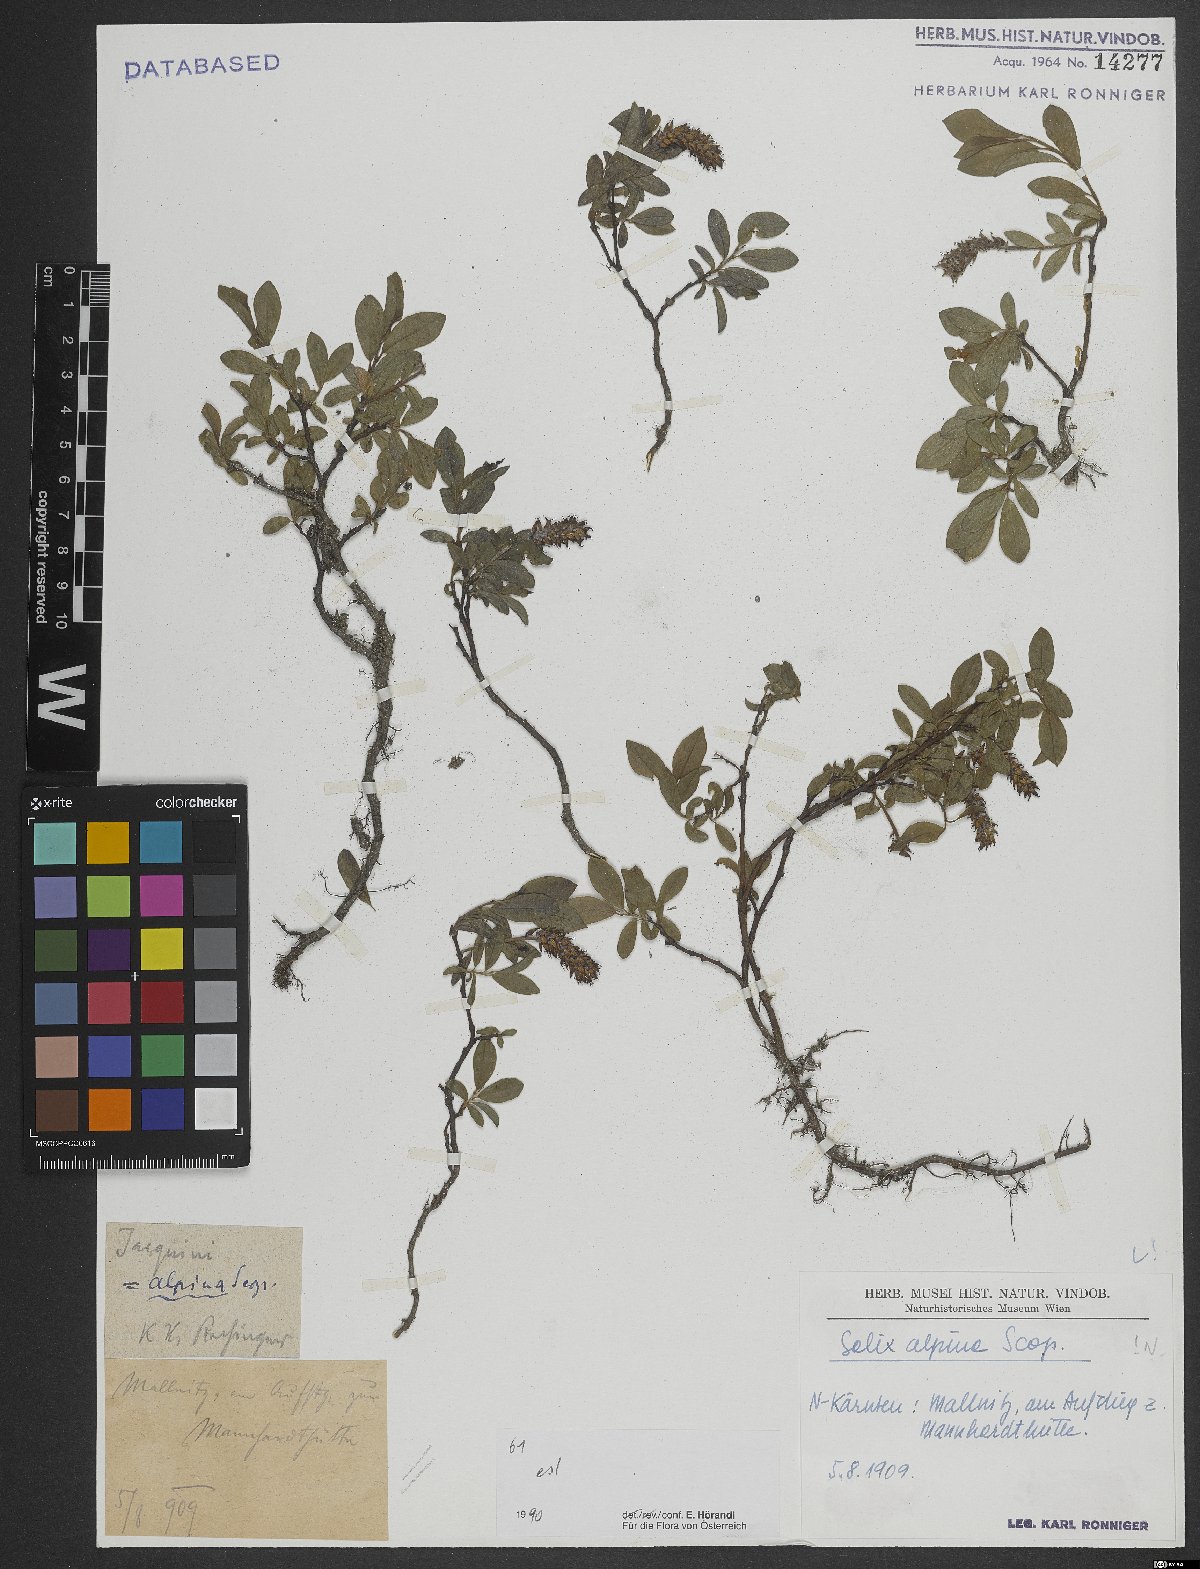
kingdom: Plantae
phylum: Tracheophyta
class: Magnoliopsida
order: Malpighiales
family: Salicaceae
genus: Salix
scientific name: Salix alpina
